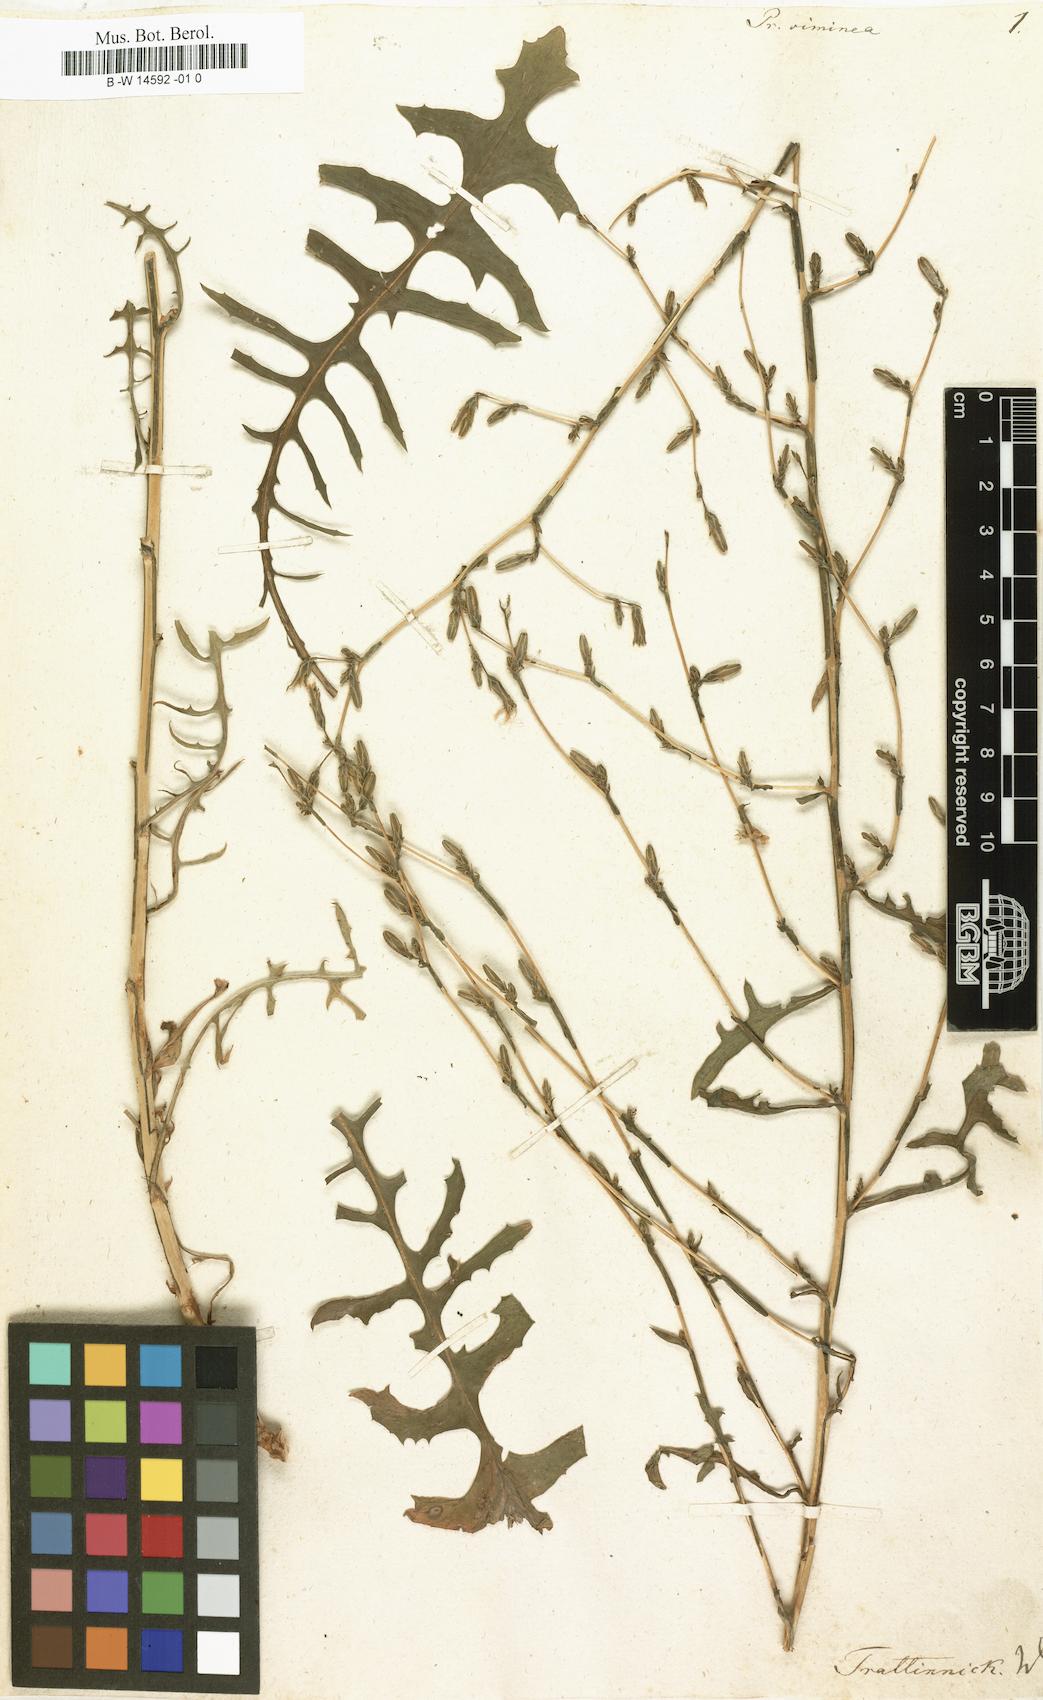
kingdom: Plantae
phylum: Tracheophyta
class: Magnoliopsida
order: Asterales
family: Asteraceae
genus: Lactuca
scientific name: Lactuca viminea
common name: Pliant lettuce
